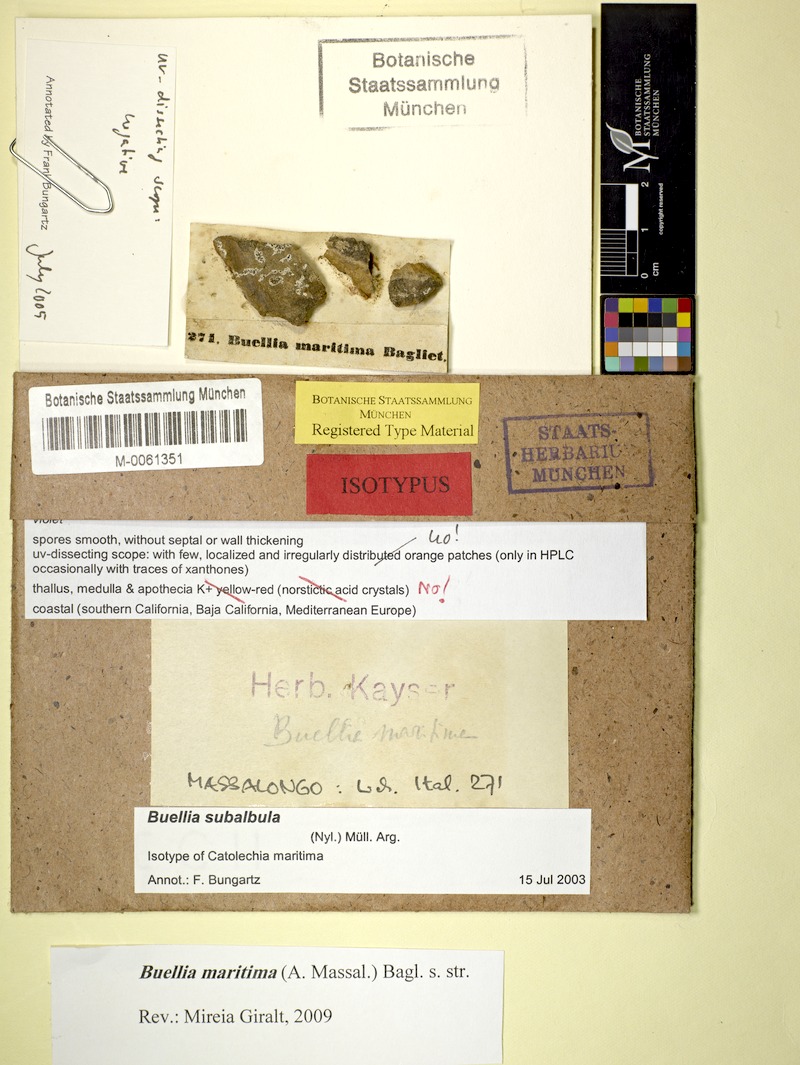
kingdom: Fungi
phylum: Ascomycota
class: Lecanoromycetes
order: Caliciales
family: Caliciaceae
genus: Buellia
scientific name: Buellia stellulata
